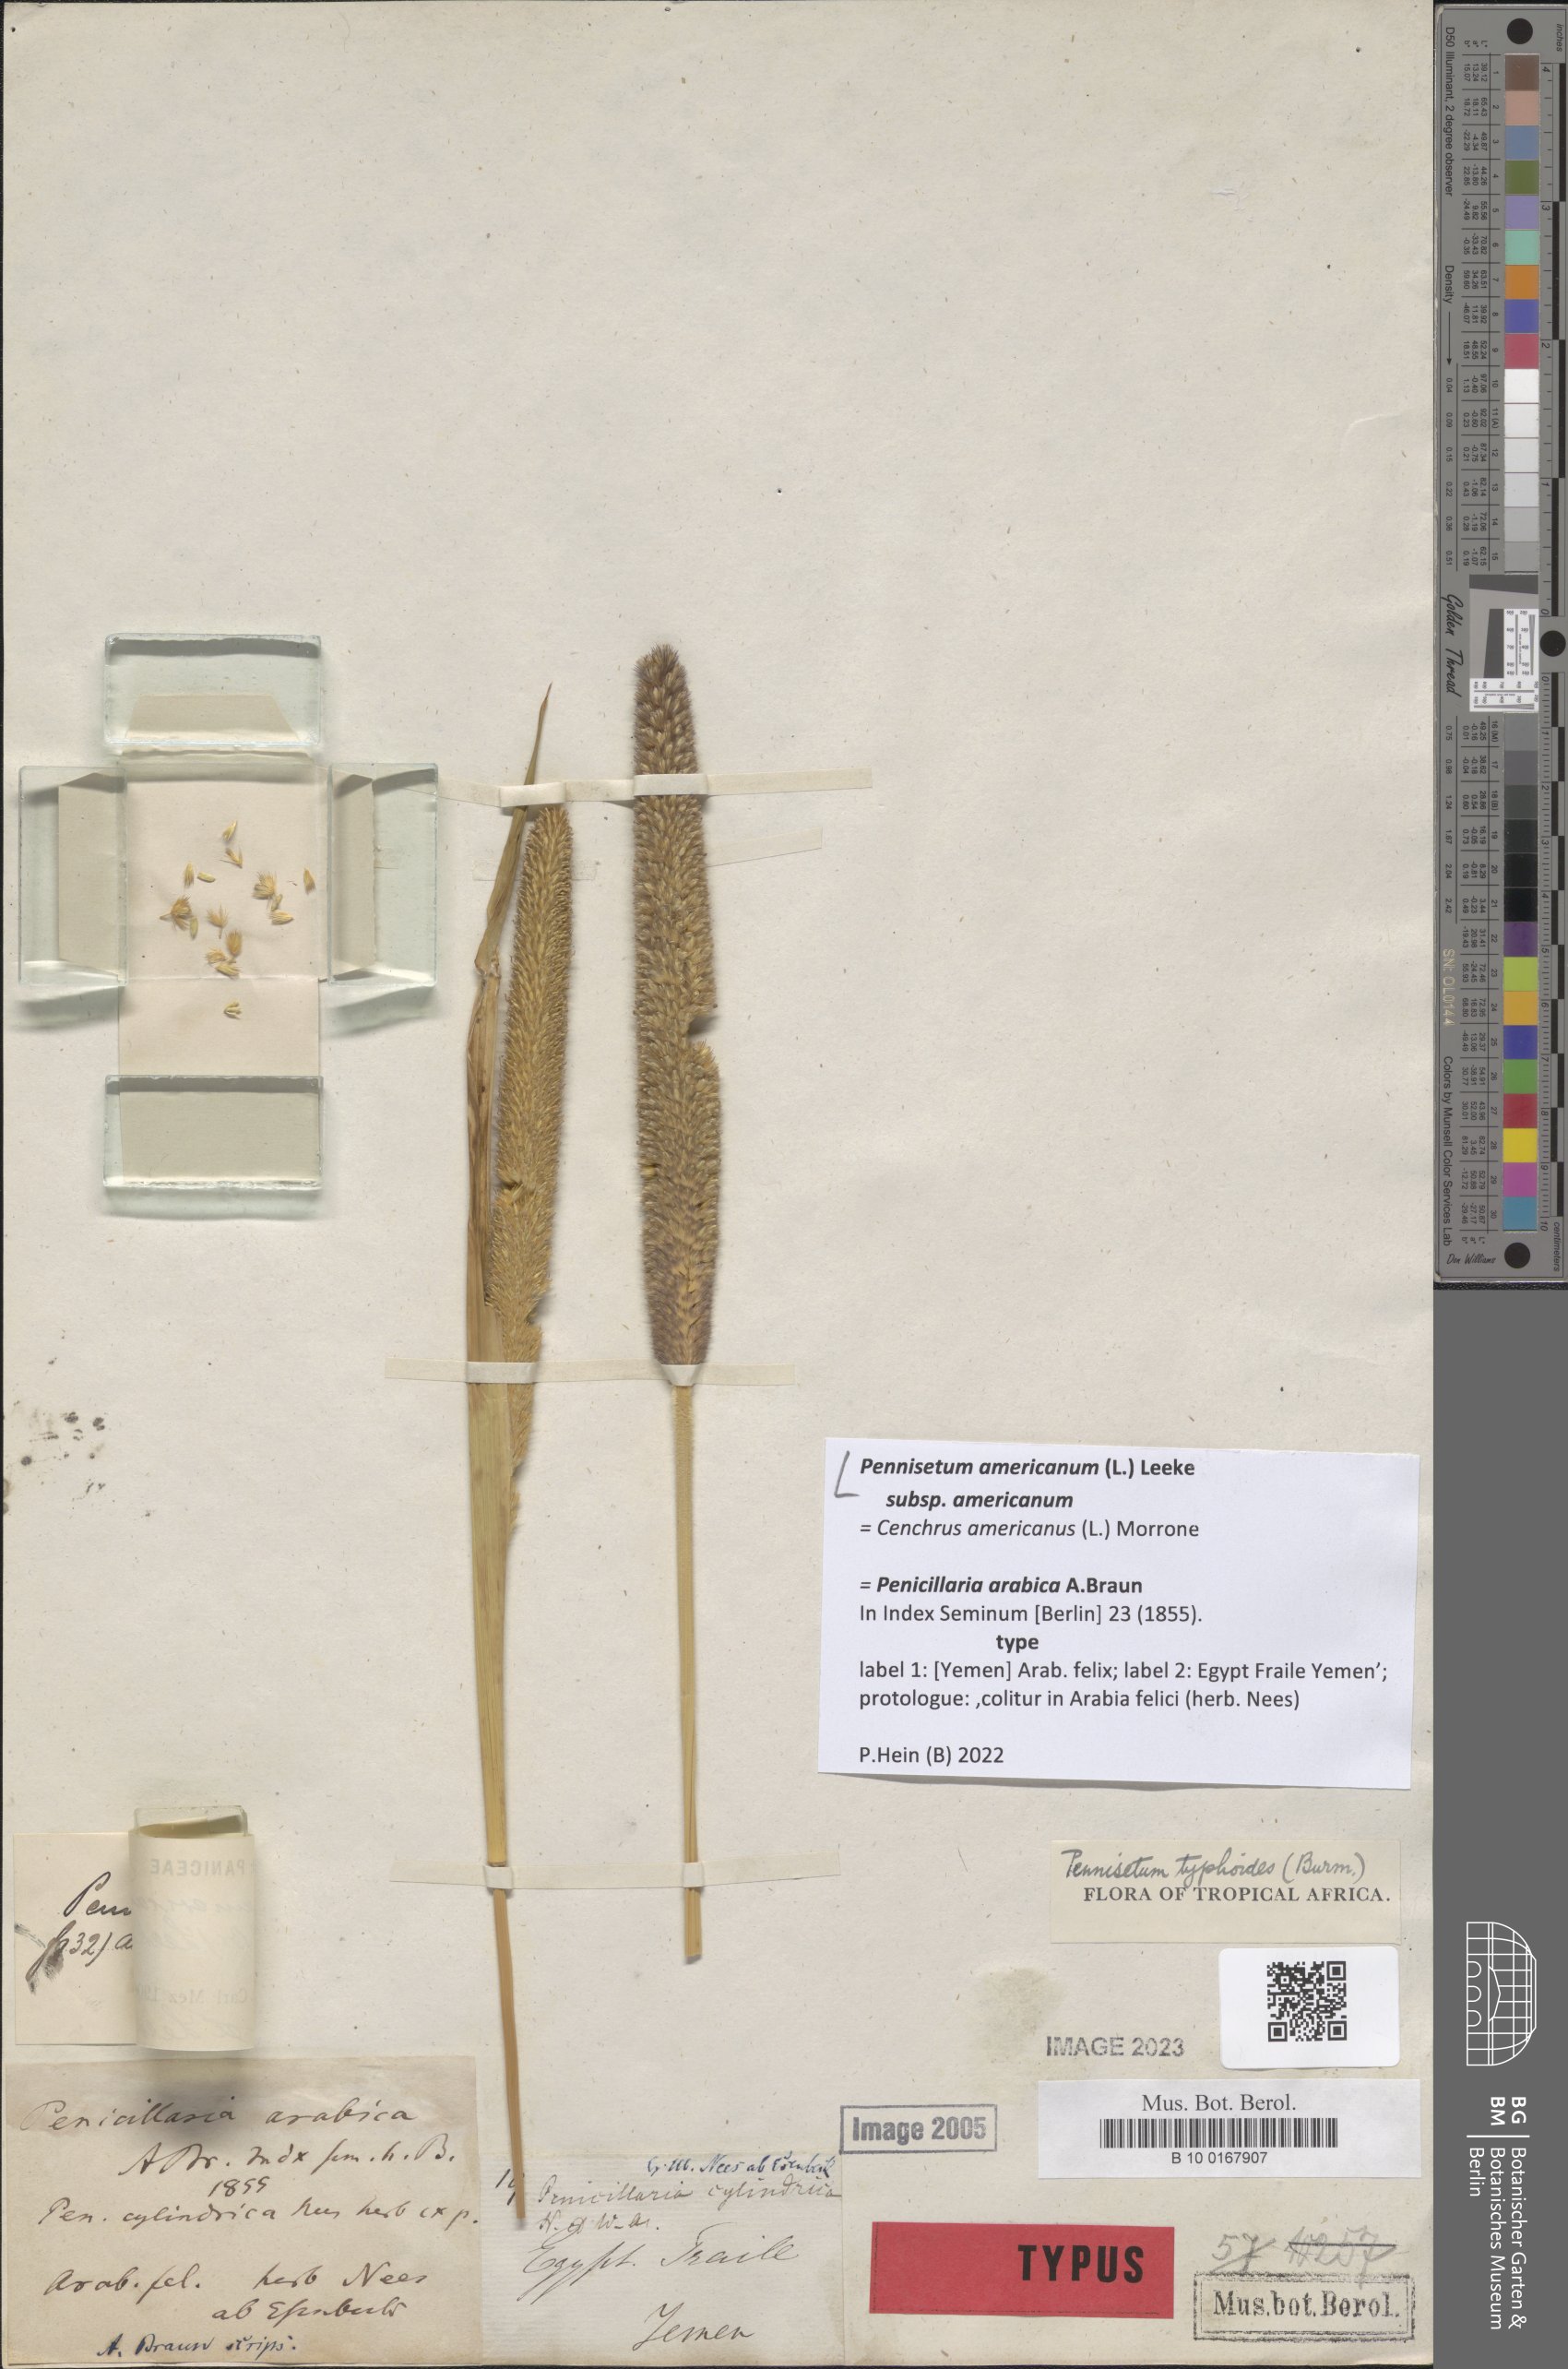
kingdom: Plantae
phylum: Tracheophyta
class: Liliopsida
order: Poales
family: Poaceae
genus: Cenchrus
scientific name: Cenchrus americanus
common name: Pearl millet
